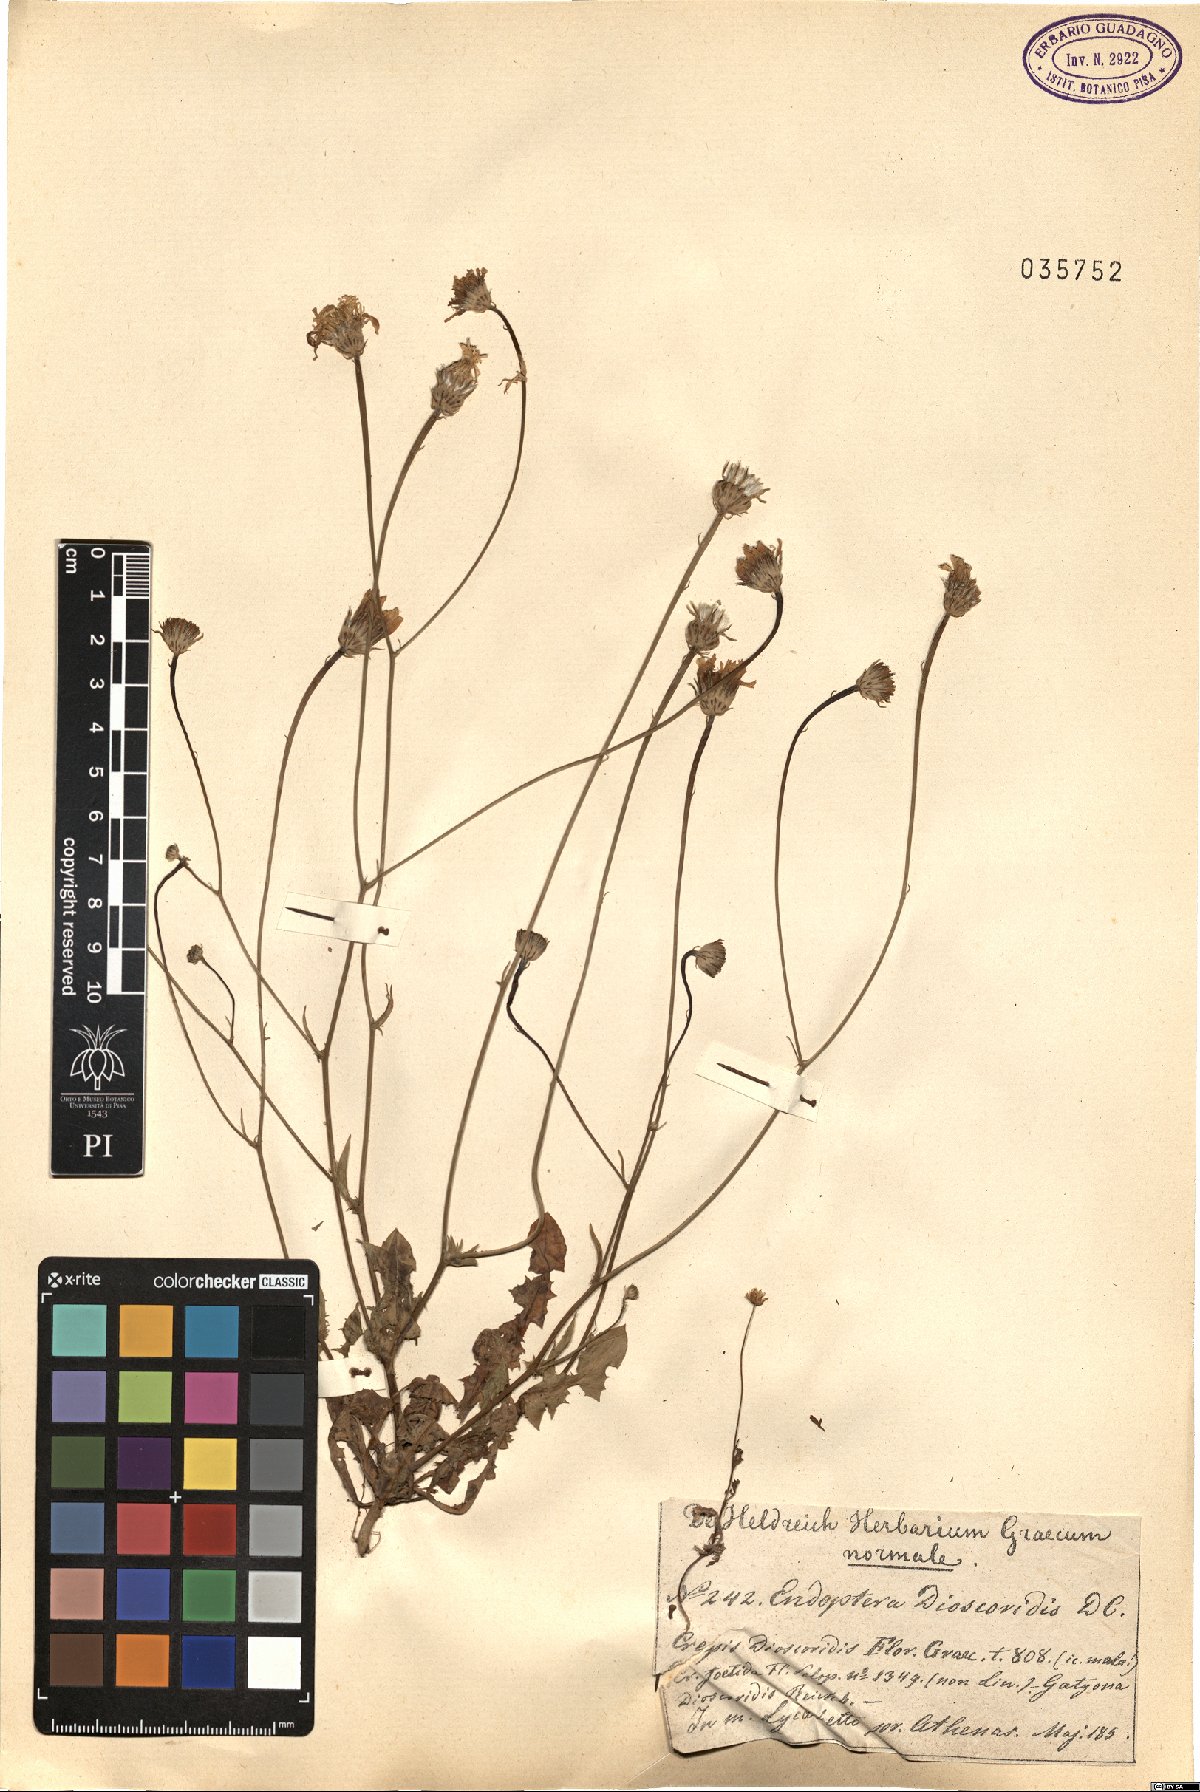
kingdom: Plantae
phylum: Tracheophyta
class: Magnoliopsida
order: Asterales
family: Asteraceae
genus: Crepis
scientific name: Crepis dioscoridis
